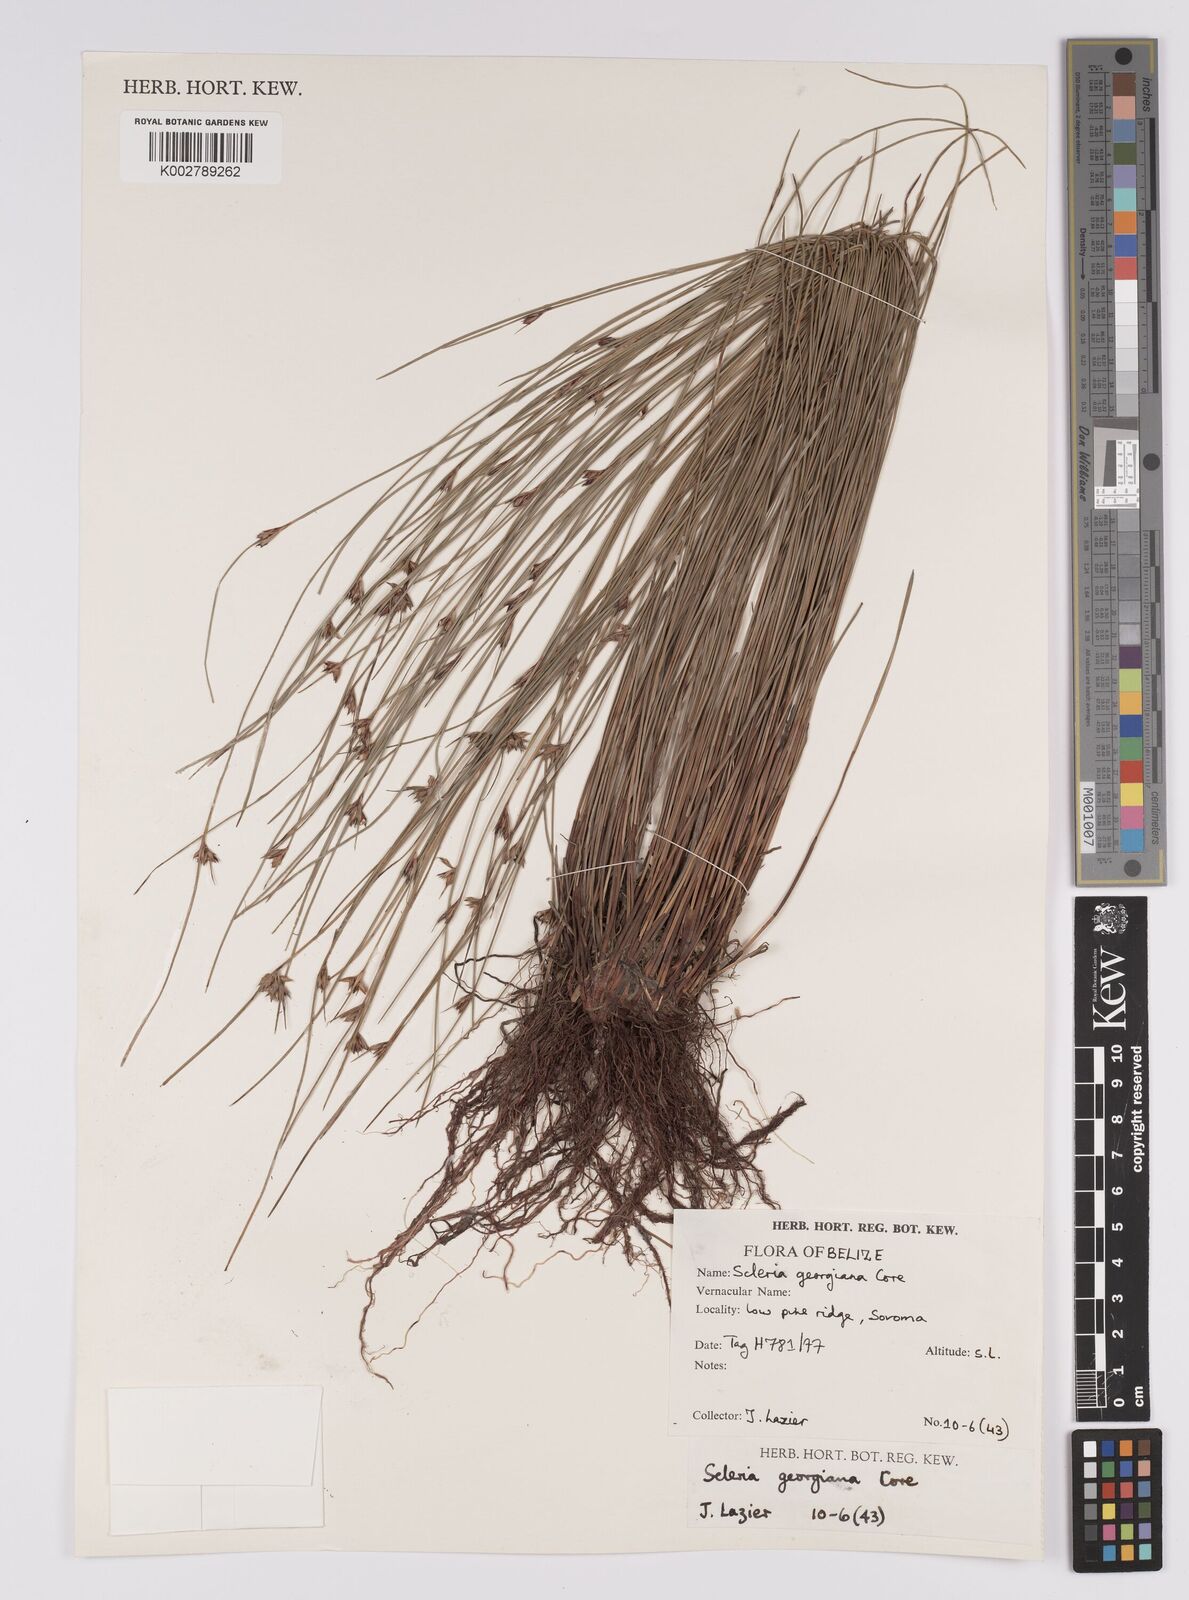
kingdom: Plantae
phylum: Tracheophyta
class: Liliopsida
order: Poales
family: Cyperaceae
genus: Scleria
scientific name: Scleria georgiana
